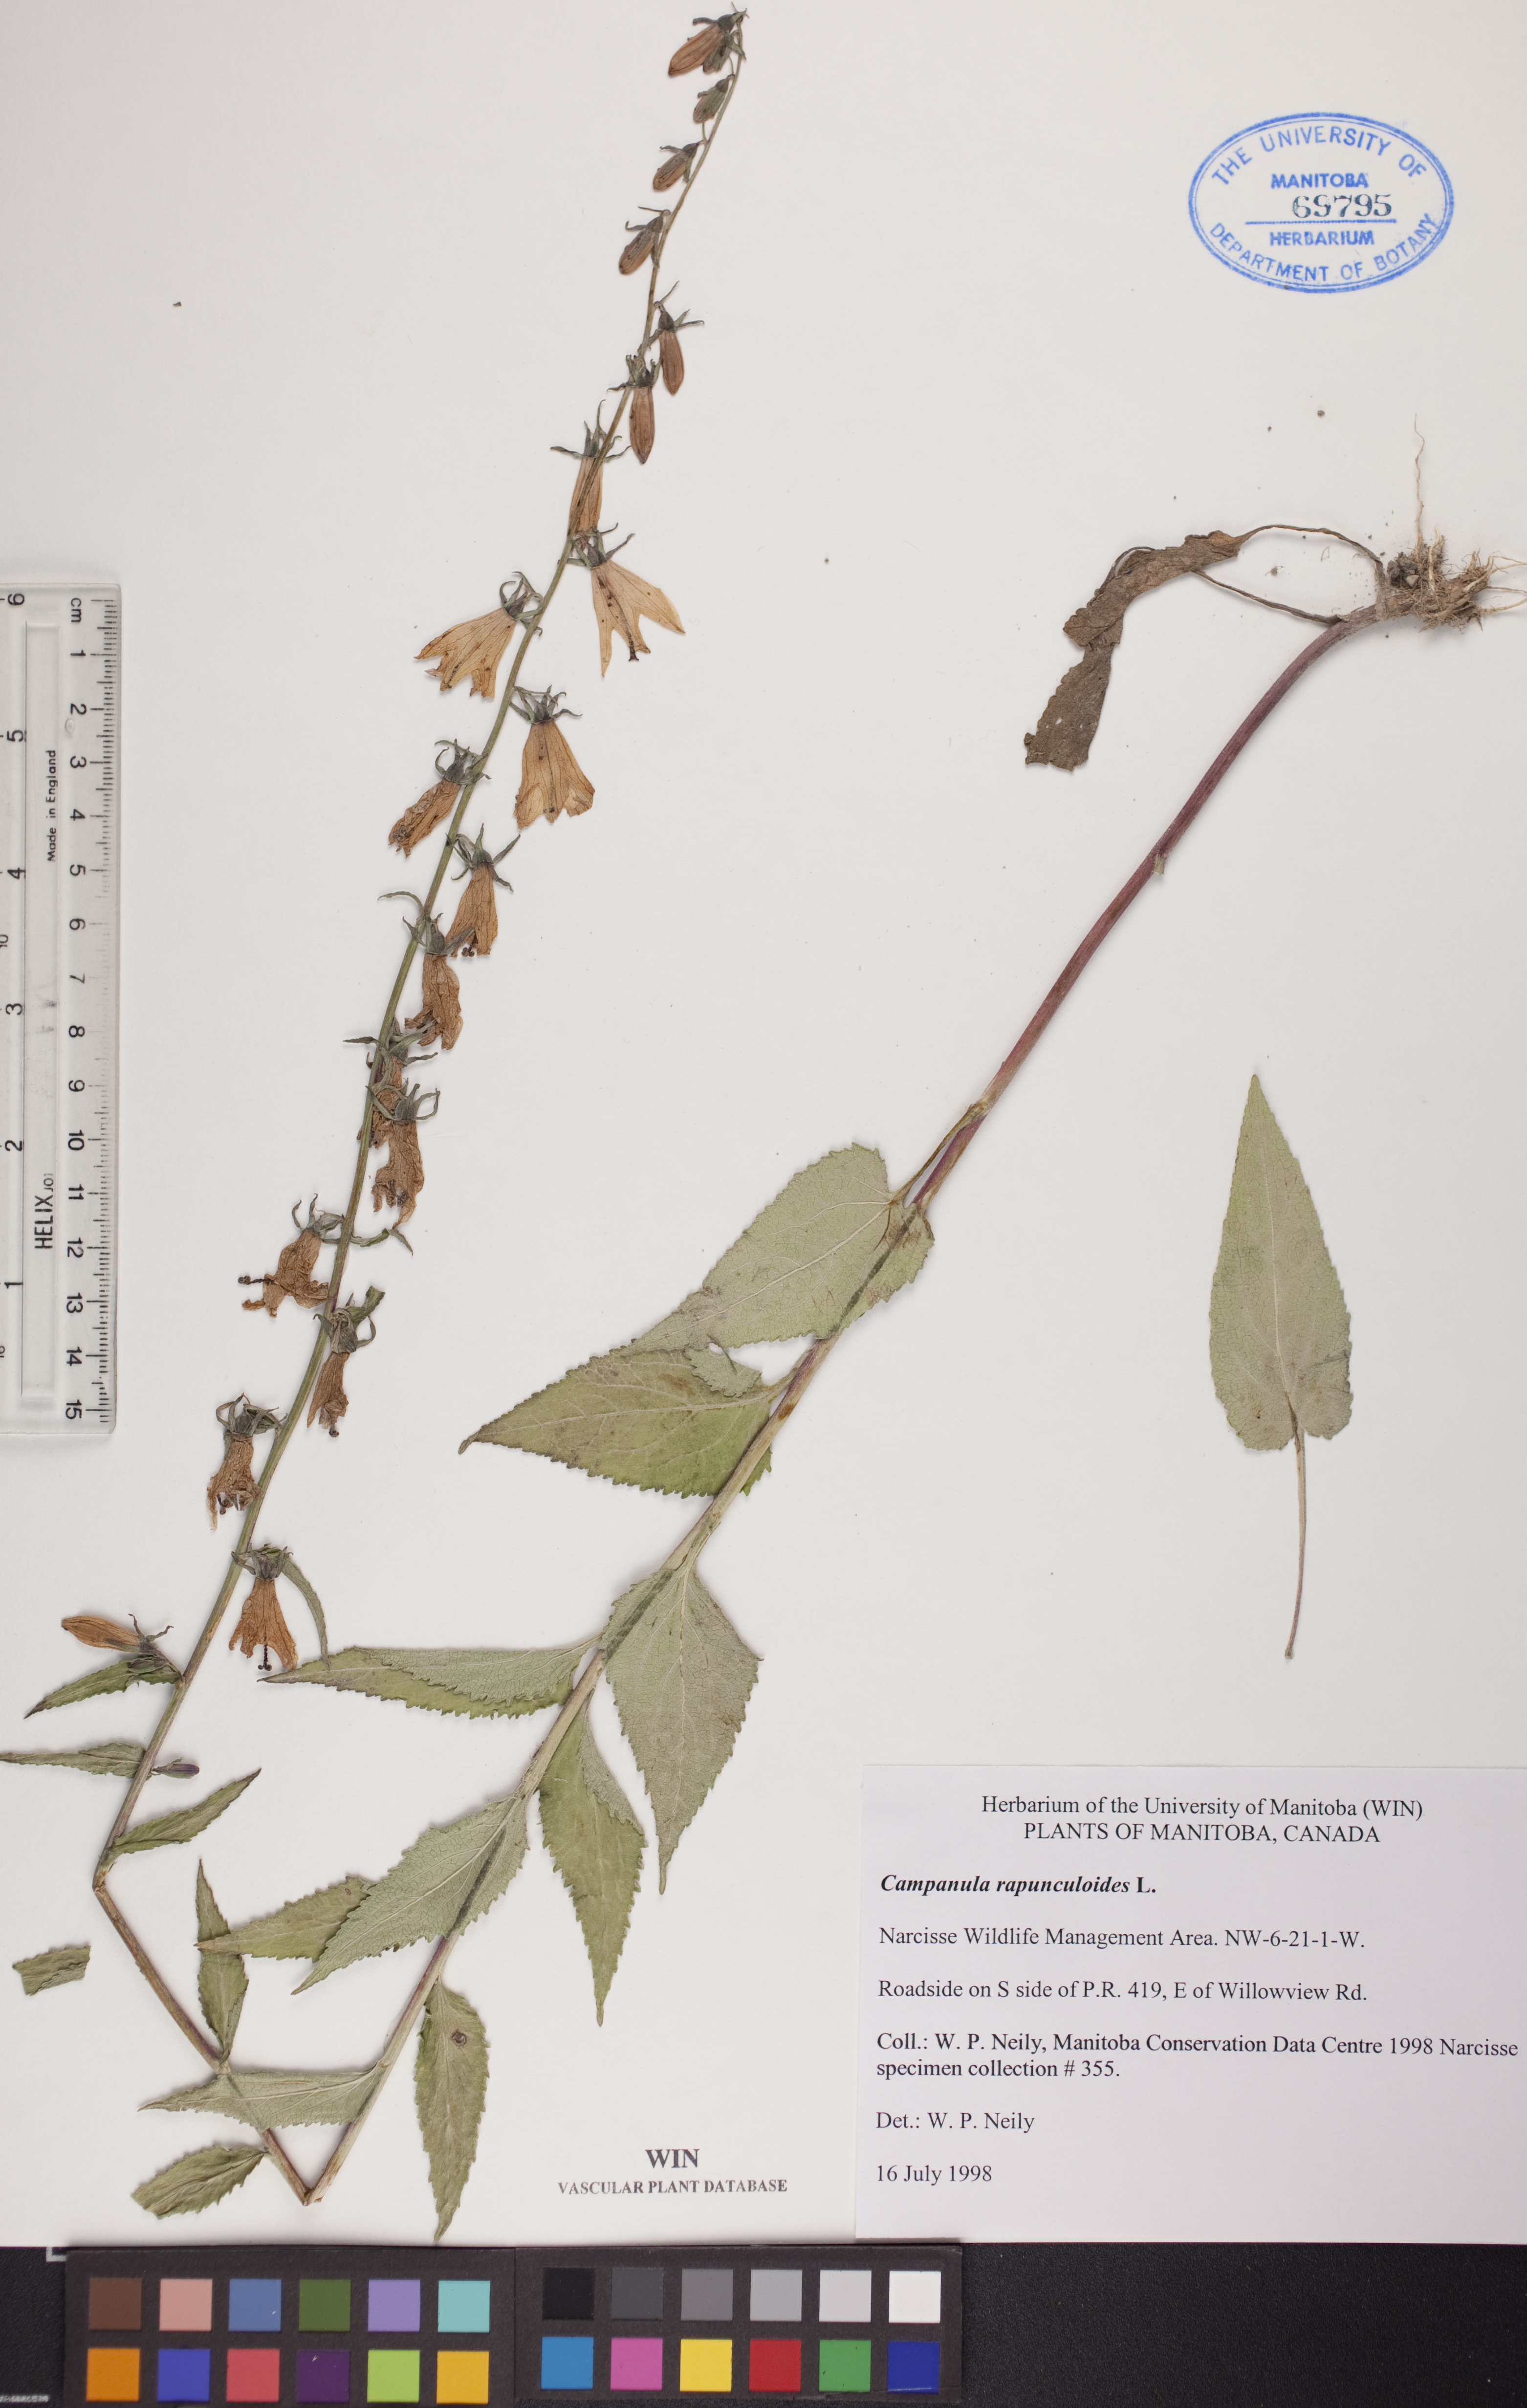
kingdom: Plantae
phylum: Tracheophyta
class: Magnoliopsida
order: Asterales
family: Campanulaceae
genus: Campanula
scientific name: Campanula rapunculoides
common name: Creeping bellflower
